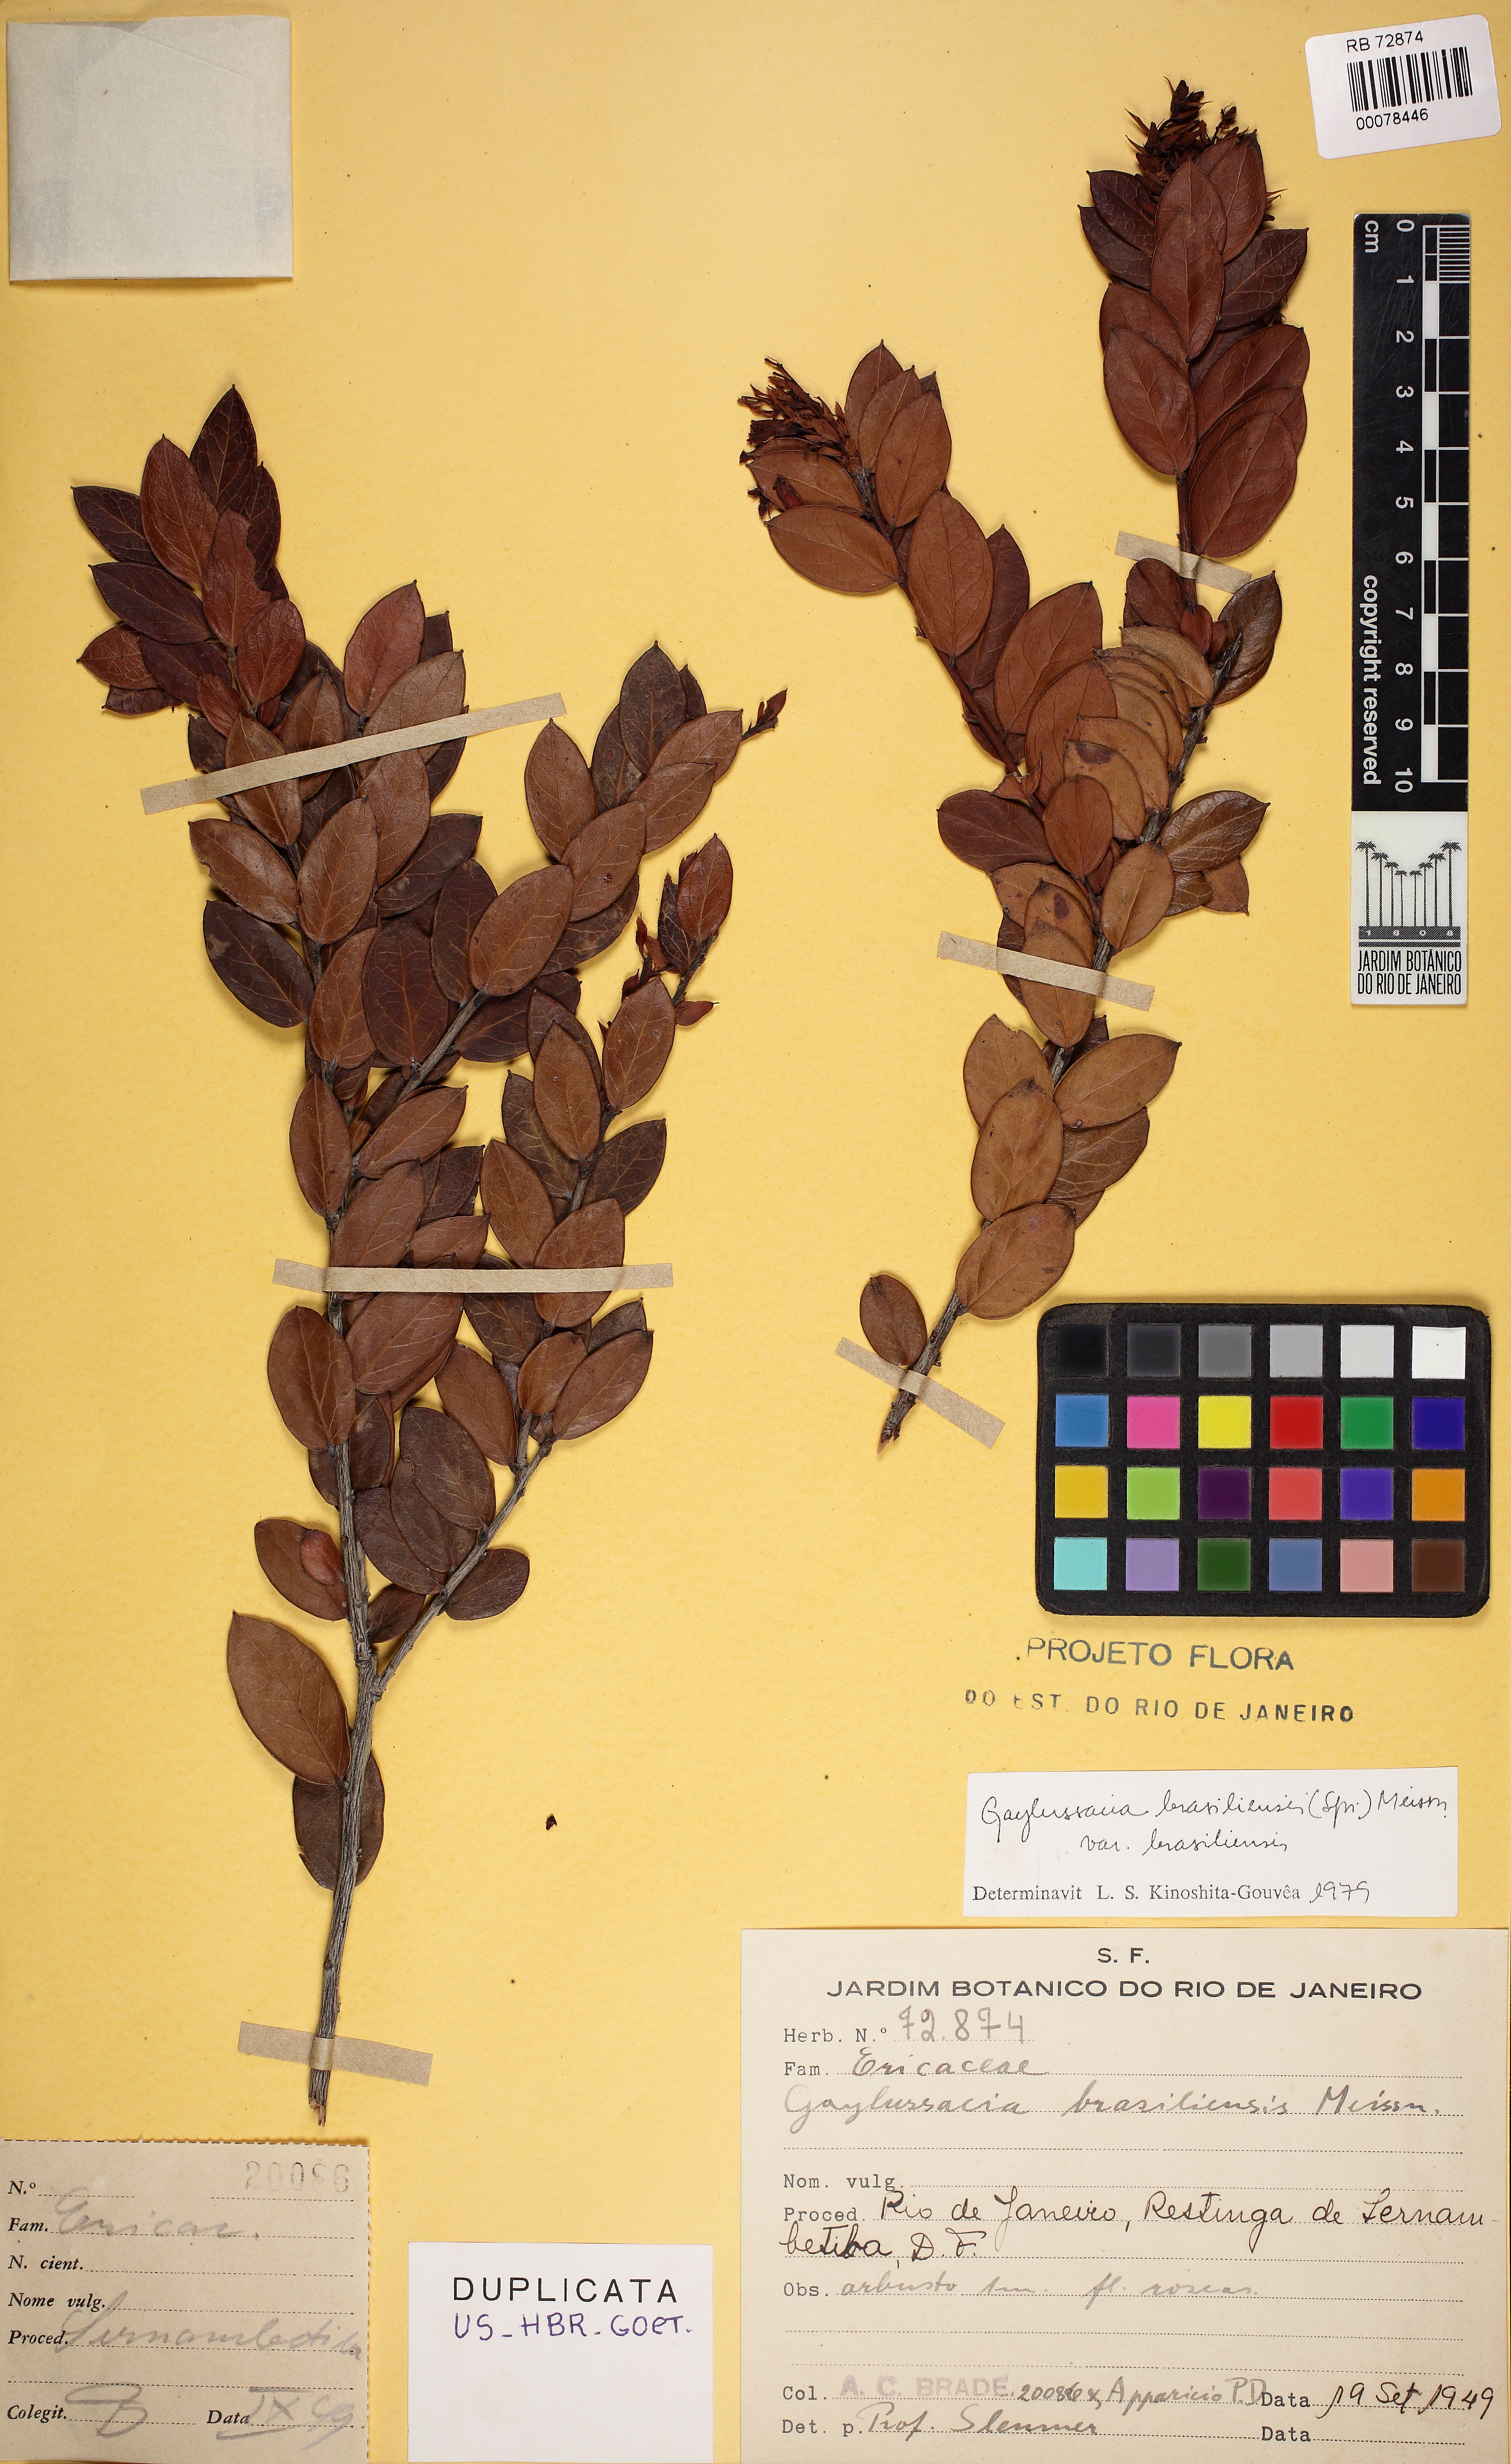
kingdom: Plantae
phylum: Tracheophyta
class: Magnoliopsida
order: Ericales
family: Ericaceae
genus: Gaylussacia
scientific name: Gaylussacia brasiliensis
